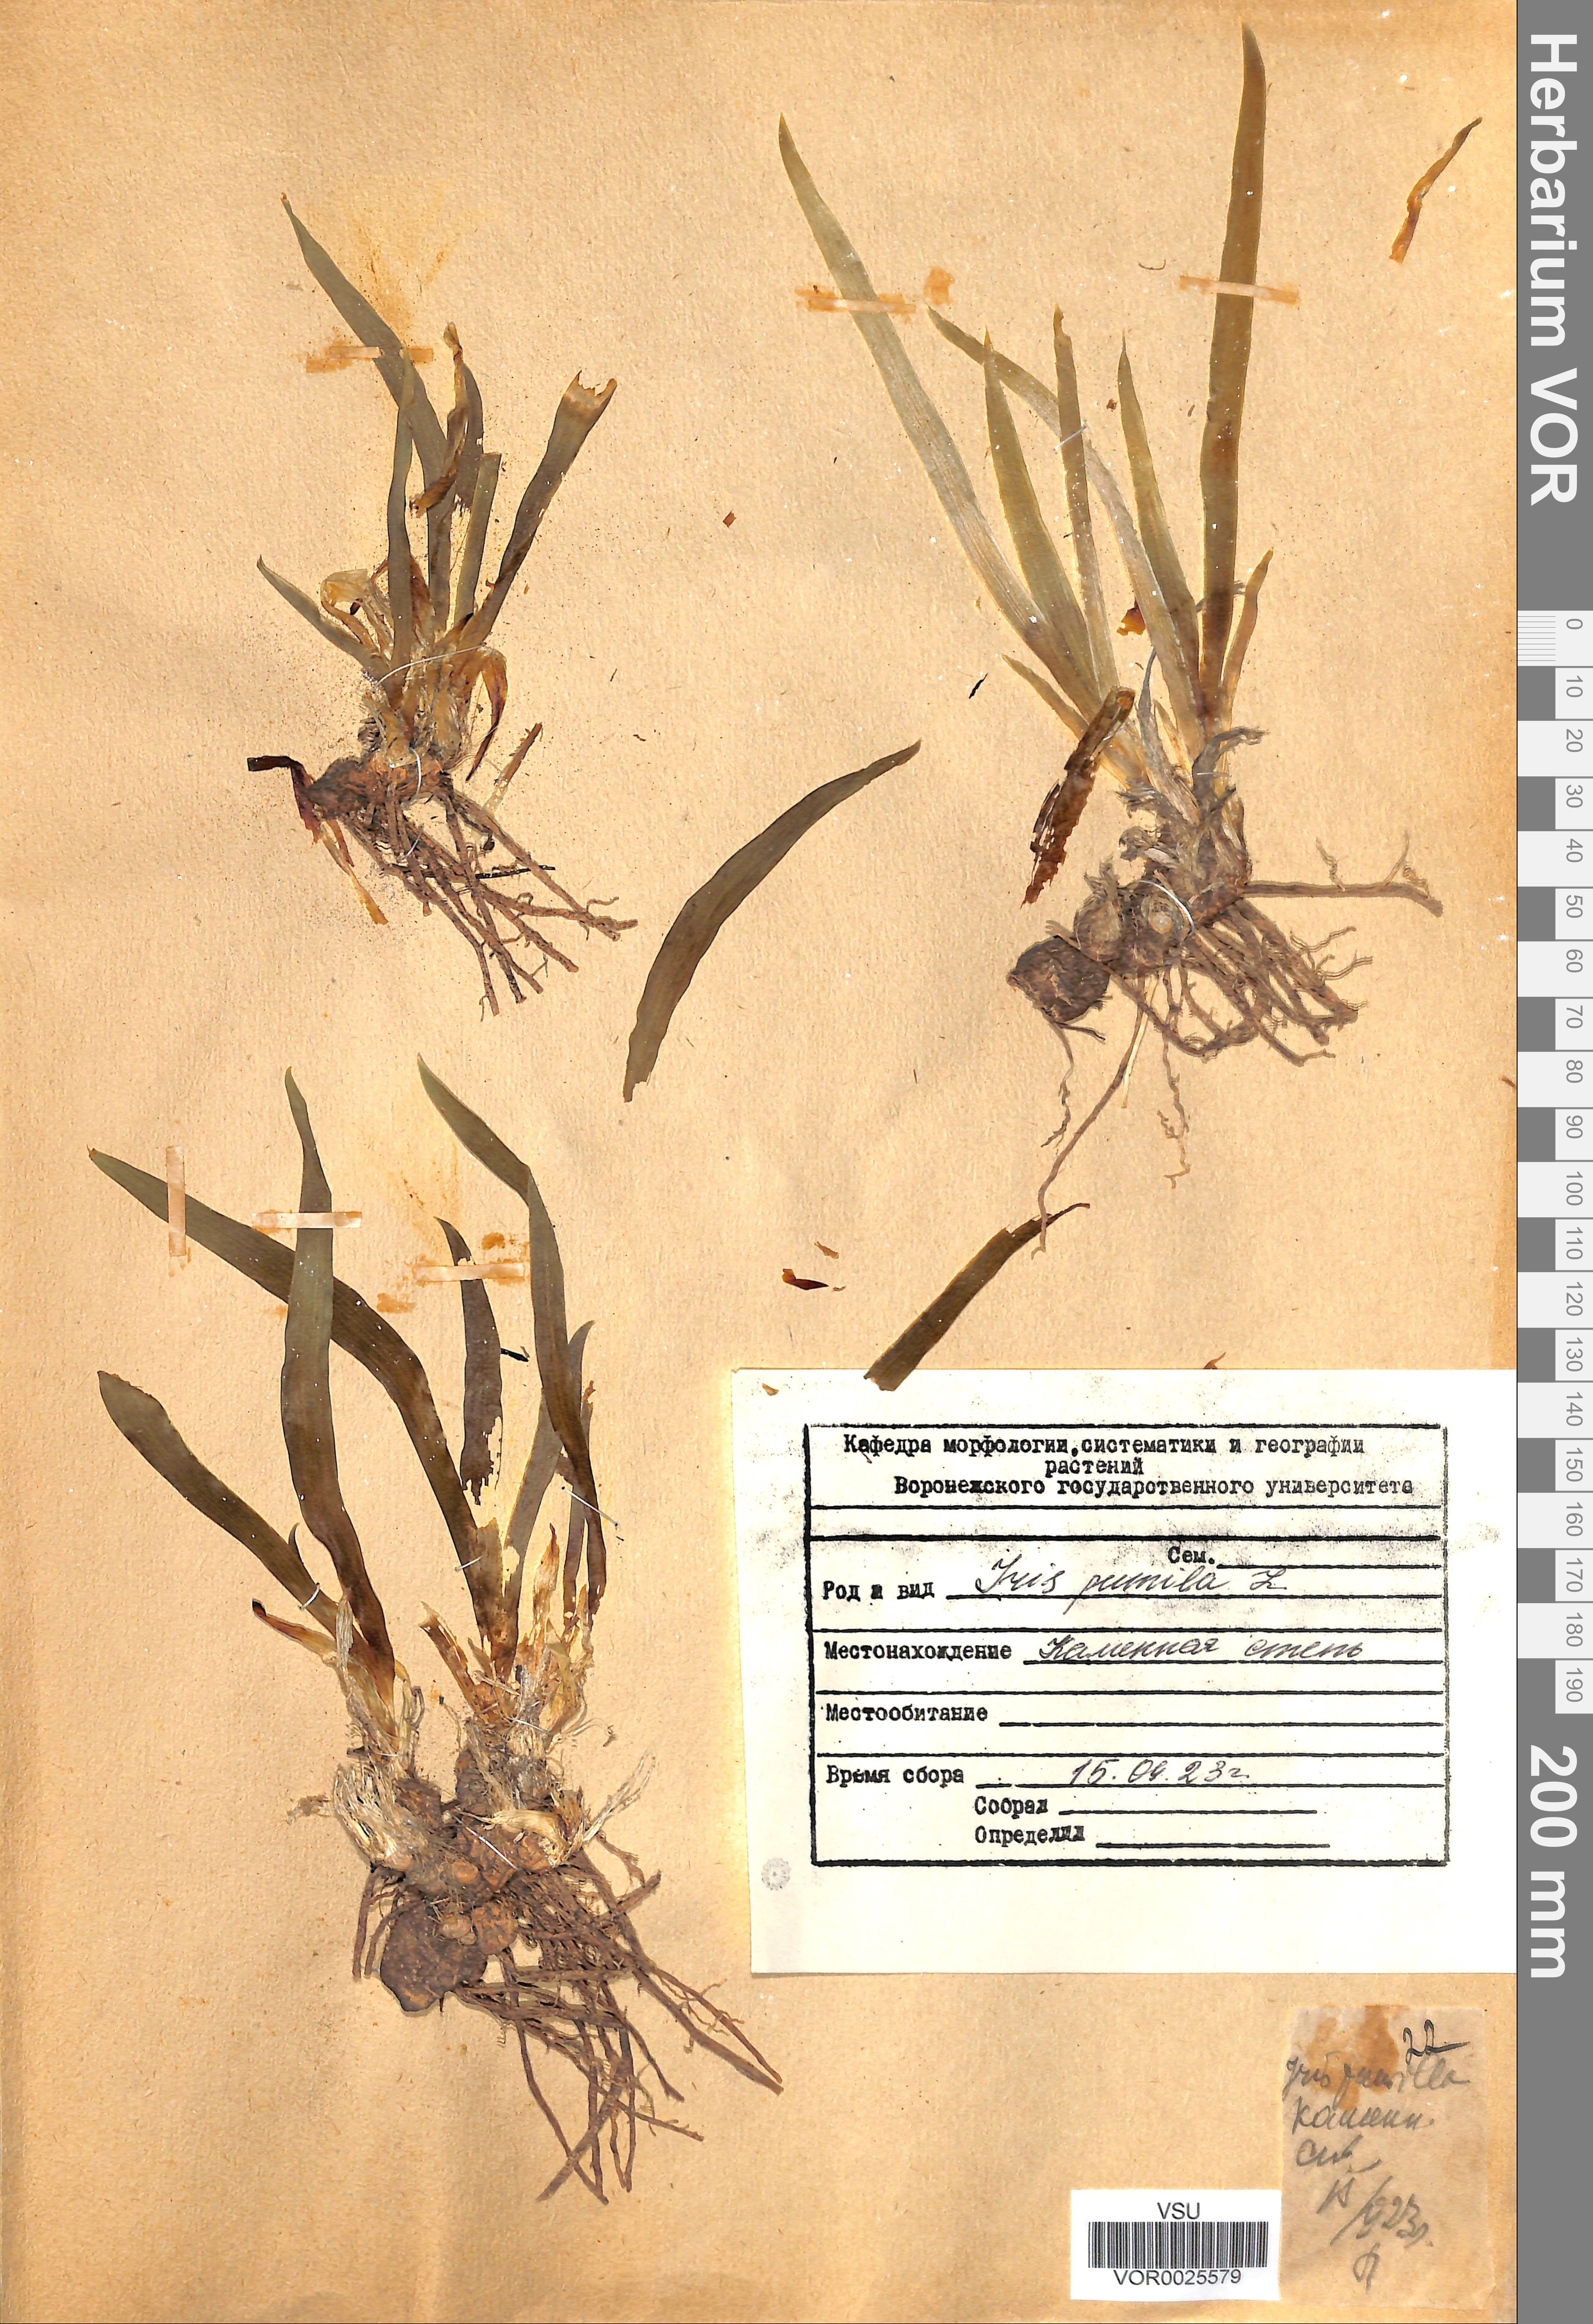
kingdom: Plantae
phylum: Tracheophyta
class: Liliopsida
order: Asparagales
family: Iridaceae
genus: Iris
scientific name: Iris pumila
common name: Dwarf iris
